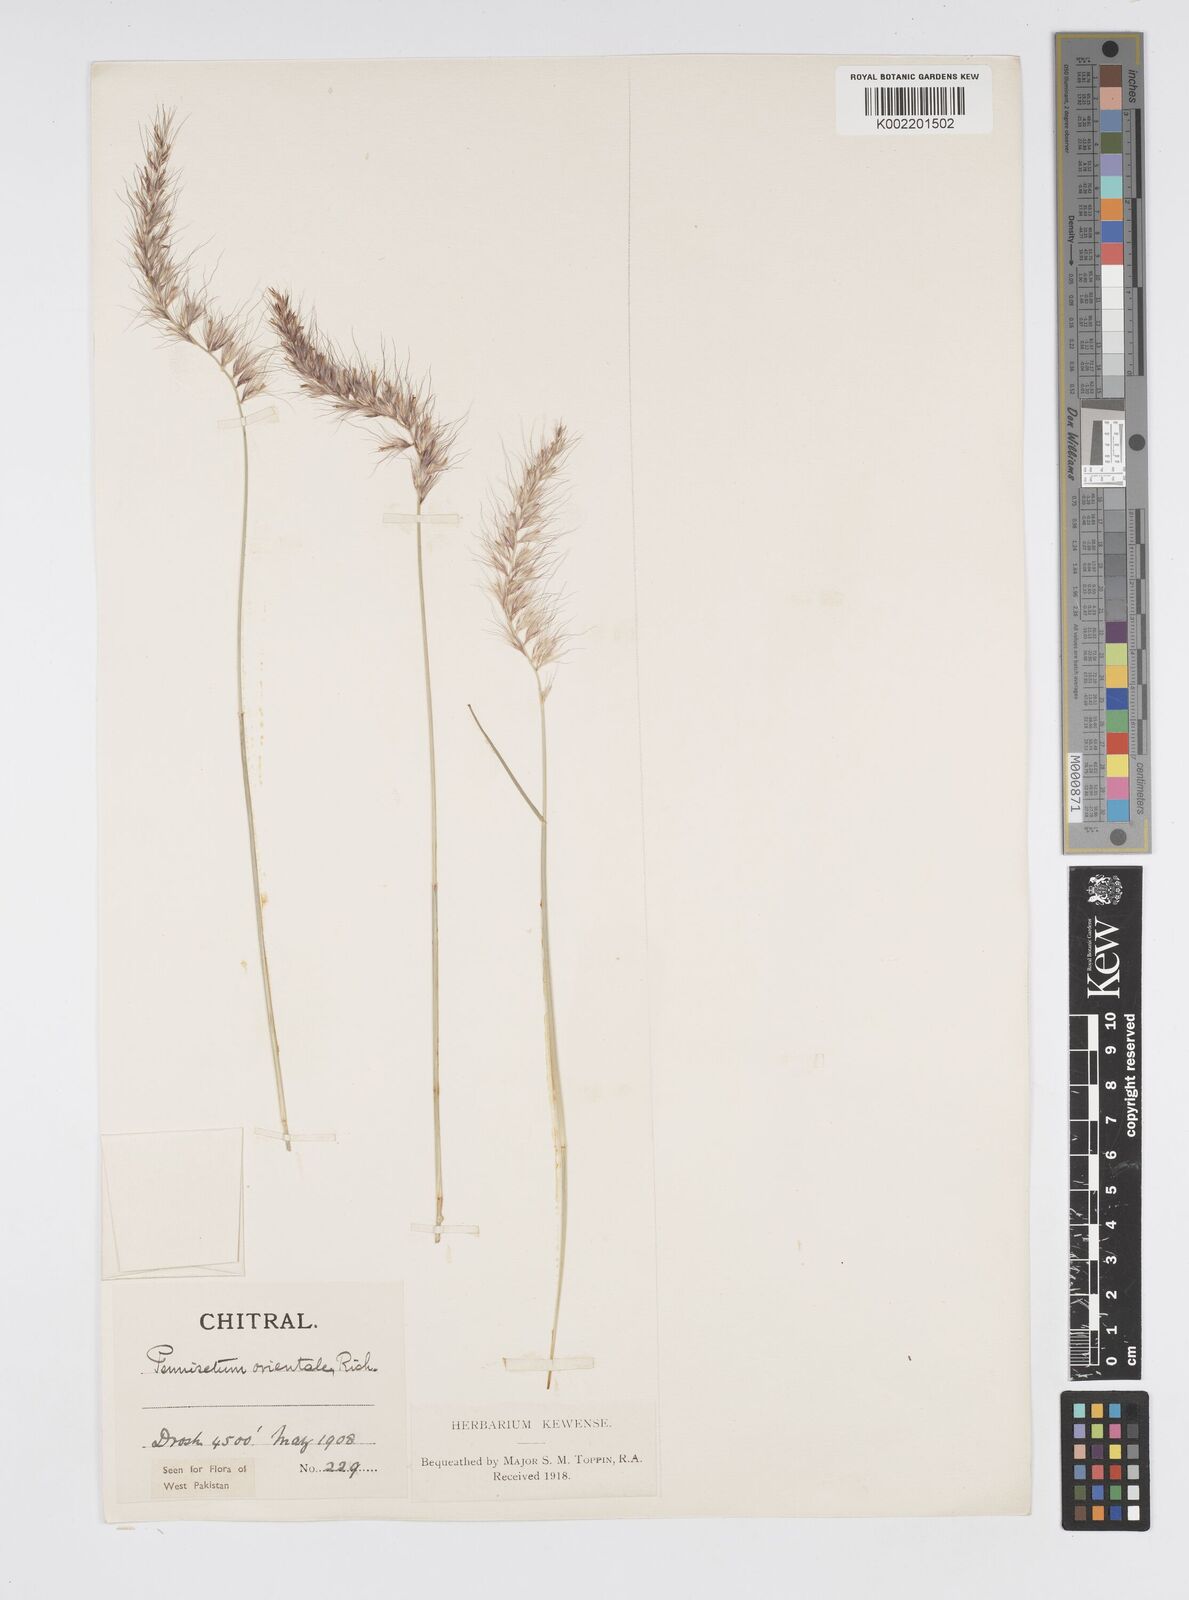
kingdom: Plantae
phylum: Tracheophyta
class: Liliopsida
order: Poales
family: Poaceae
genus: Cenchrus
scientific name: Cenchrus orientalis
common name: Oriental fountain grass
